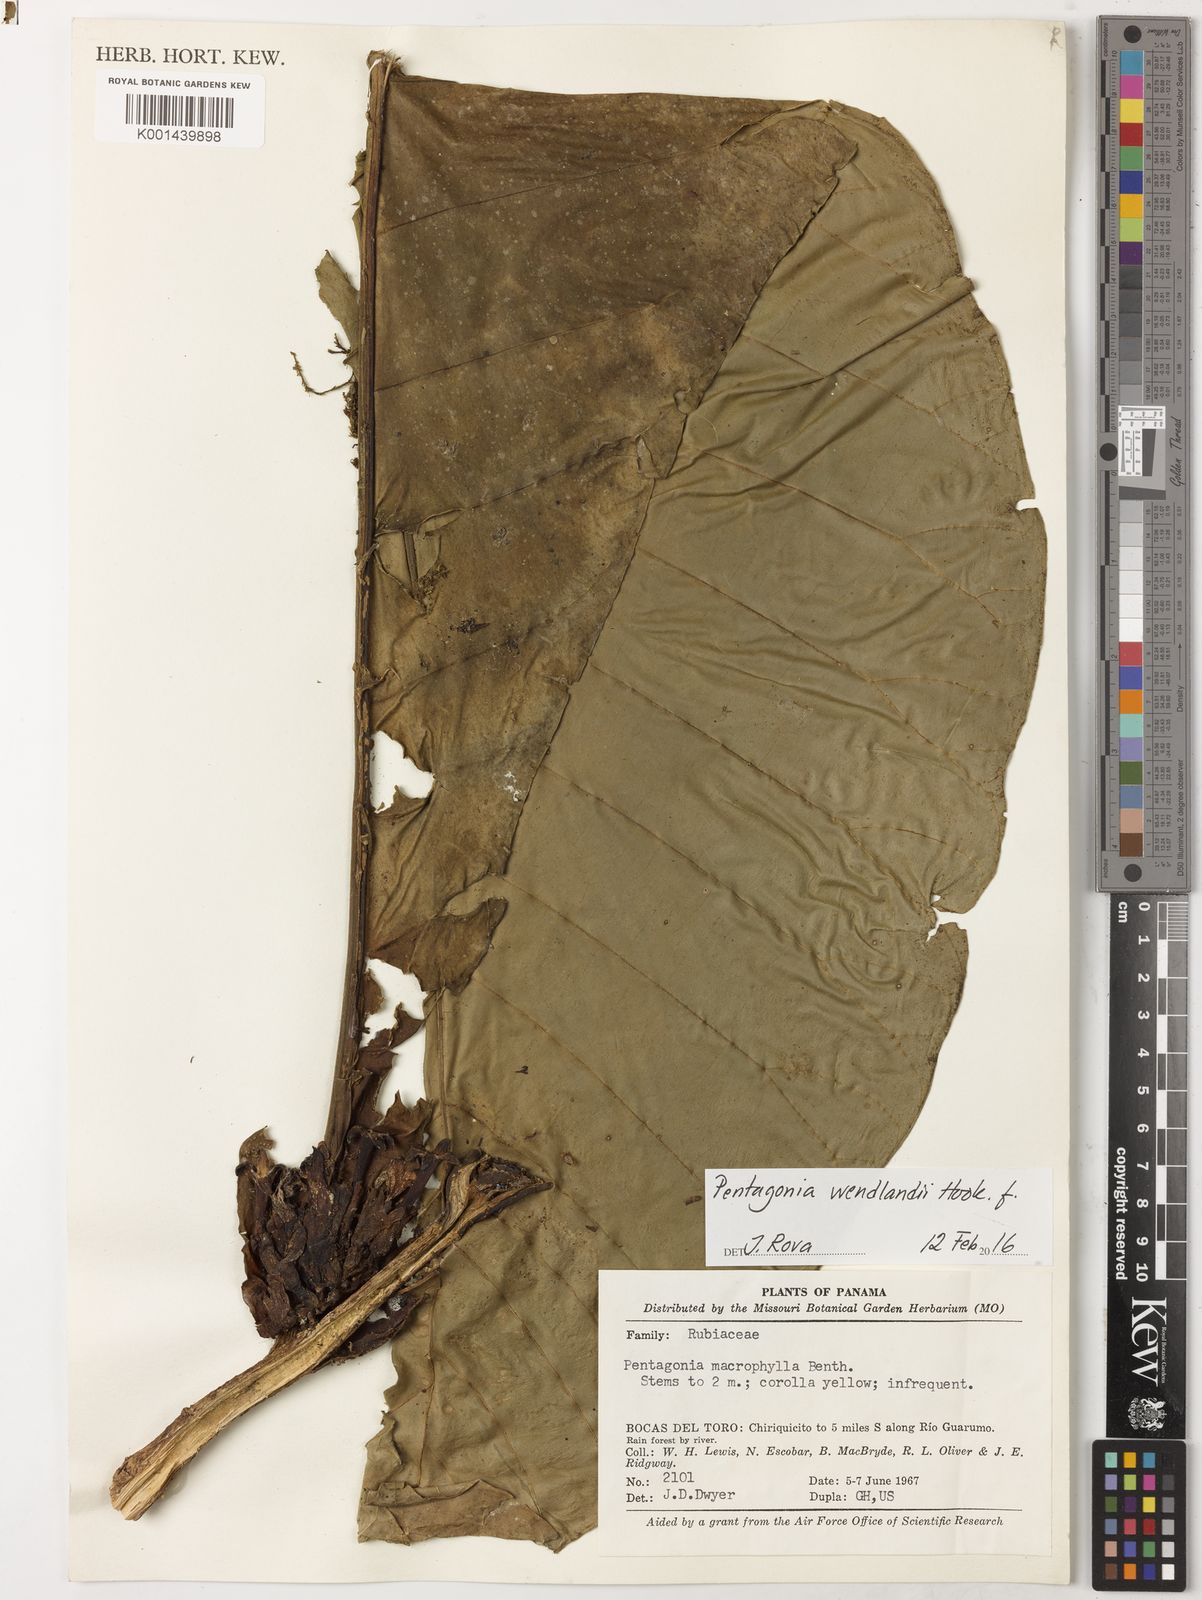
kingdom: Plantae
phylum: Tracheophyta
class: Magnoliopsida
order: Gentianales
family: Rubiaceae
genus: Pentagonia
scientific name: Pentagonia wendlandii
